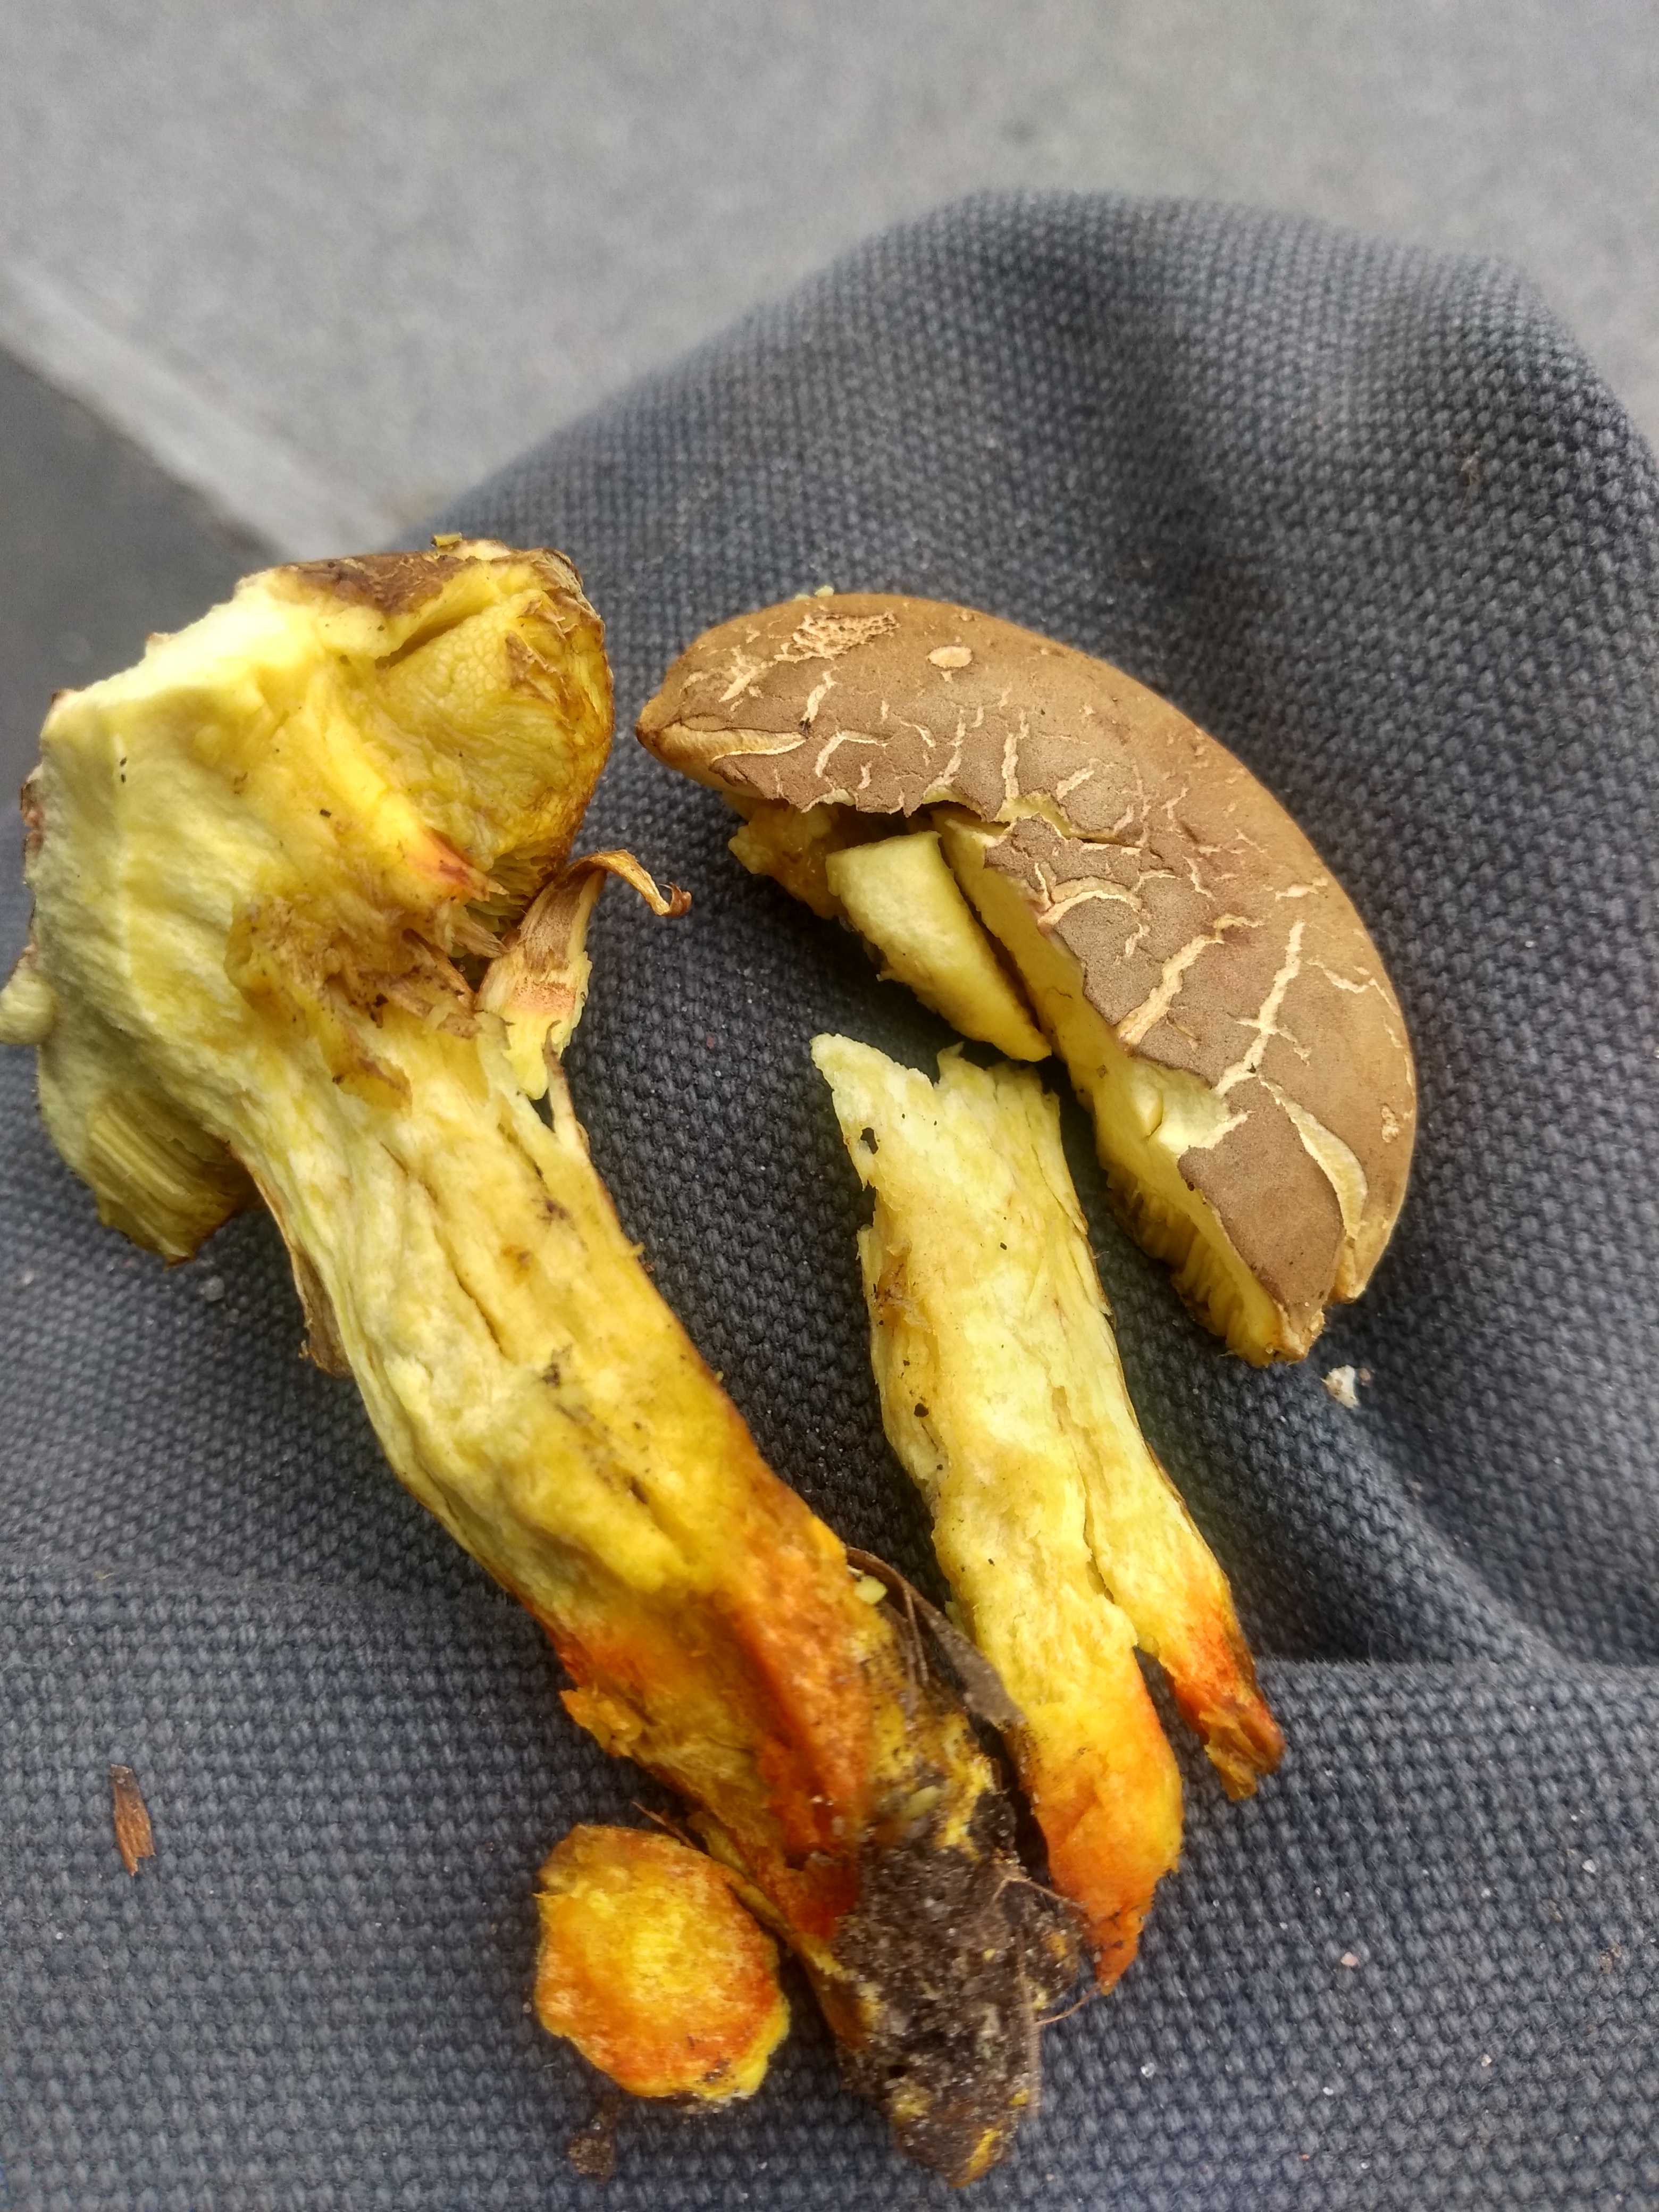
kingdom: Fungi
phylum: Basidiomycota
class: Agaricomycetes
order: Boletales
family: Boletaceae
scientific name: Boletaceae
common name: rørhatfamilien
